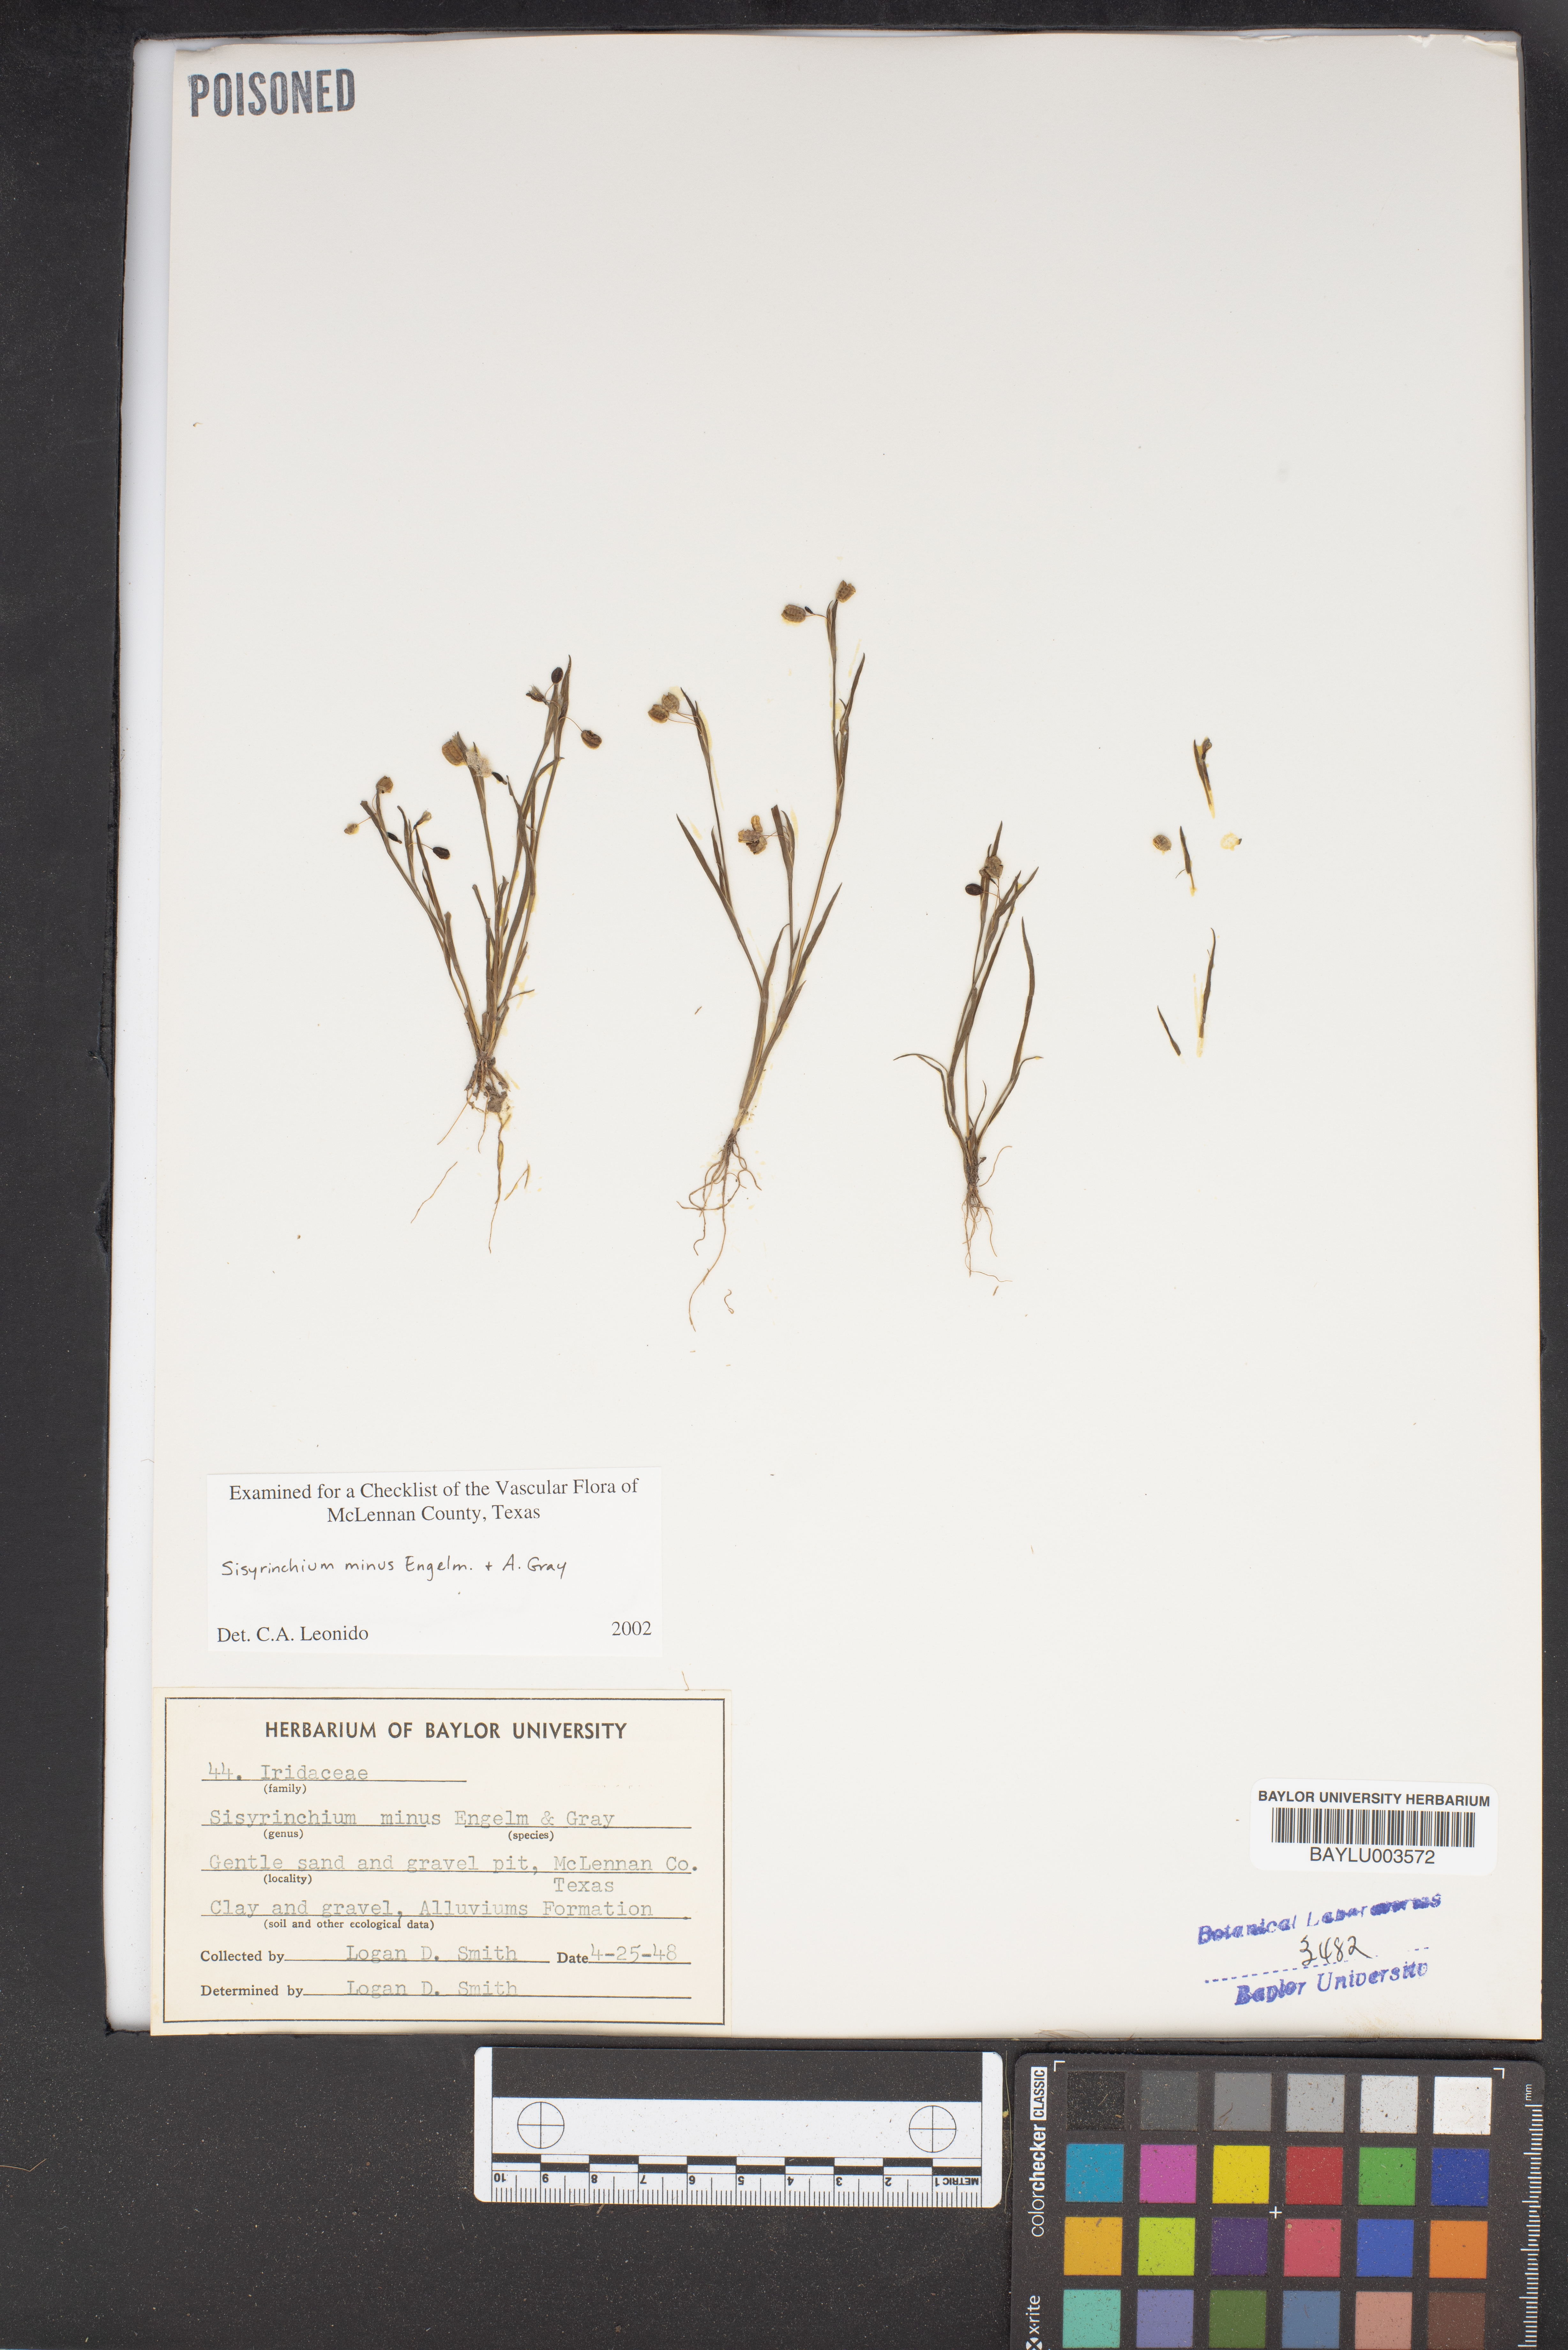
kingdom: Plantae
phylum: Tracheophyta
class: Liliopsida
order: Asparagales
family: Iridaceae
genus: Sisyrinchium
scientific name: Sisyrinchium minus
